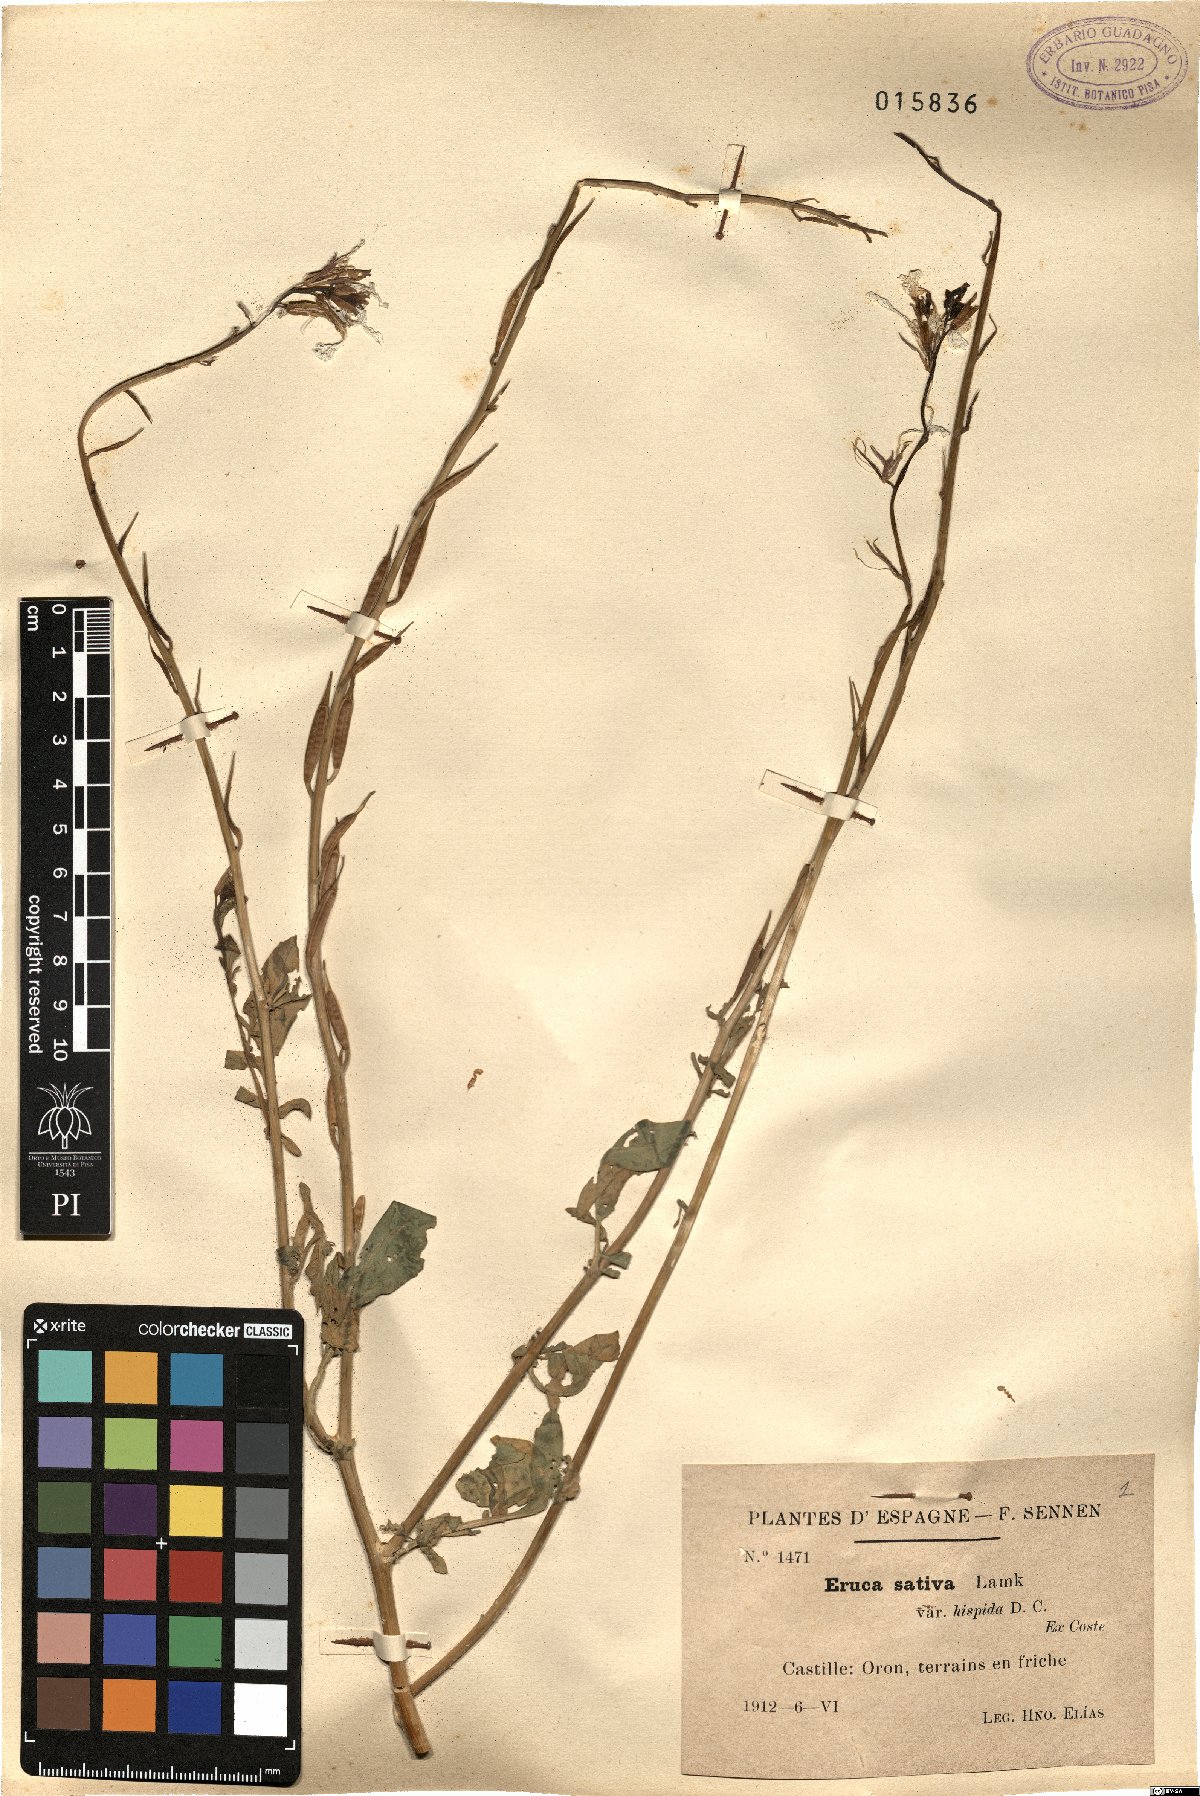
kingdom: Plantae
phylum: Tracheophyta
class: Magnoliopsida
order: Brassicales
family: Brassicaceae
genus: Eruca
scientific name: Eruca vesicaria
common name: Garden rocket
